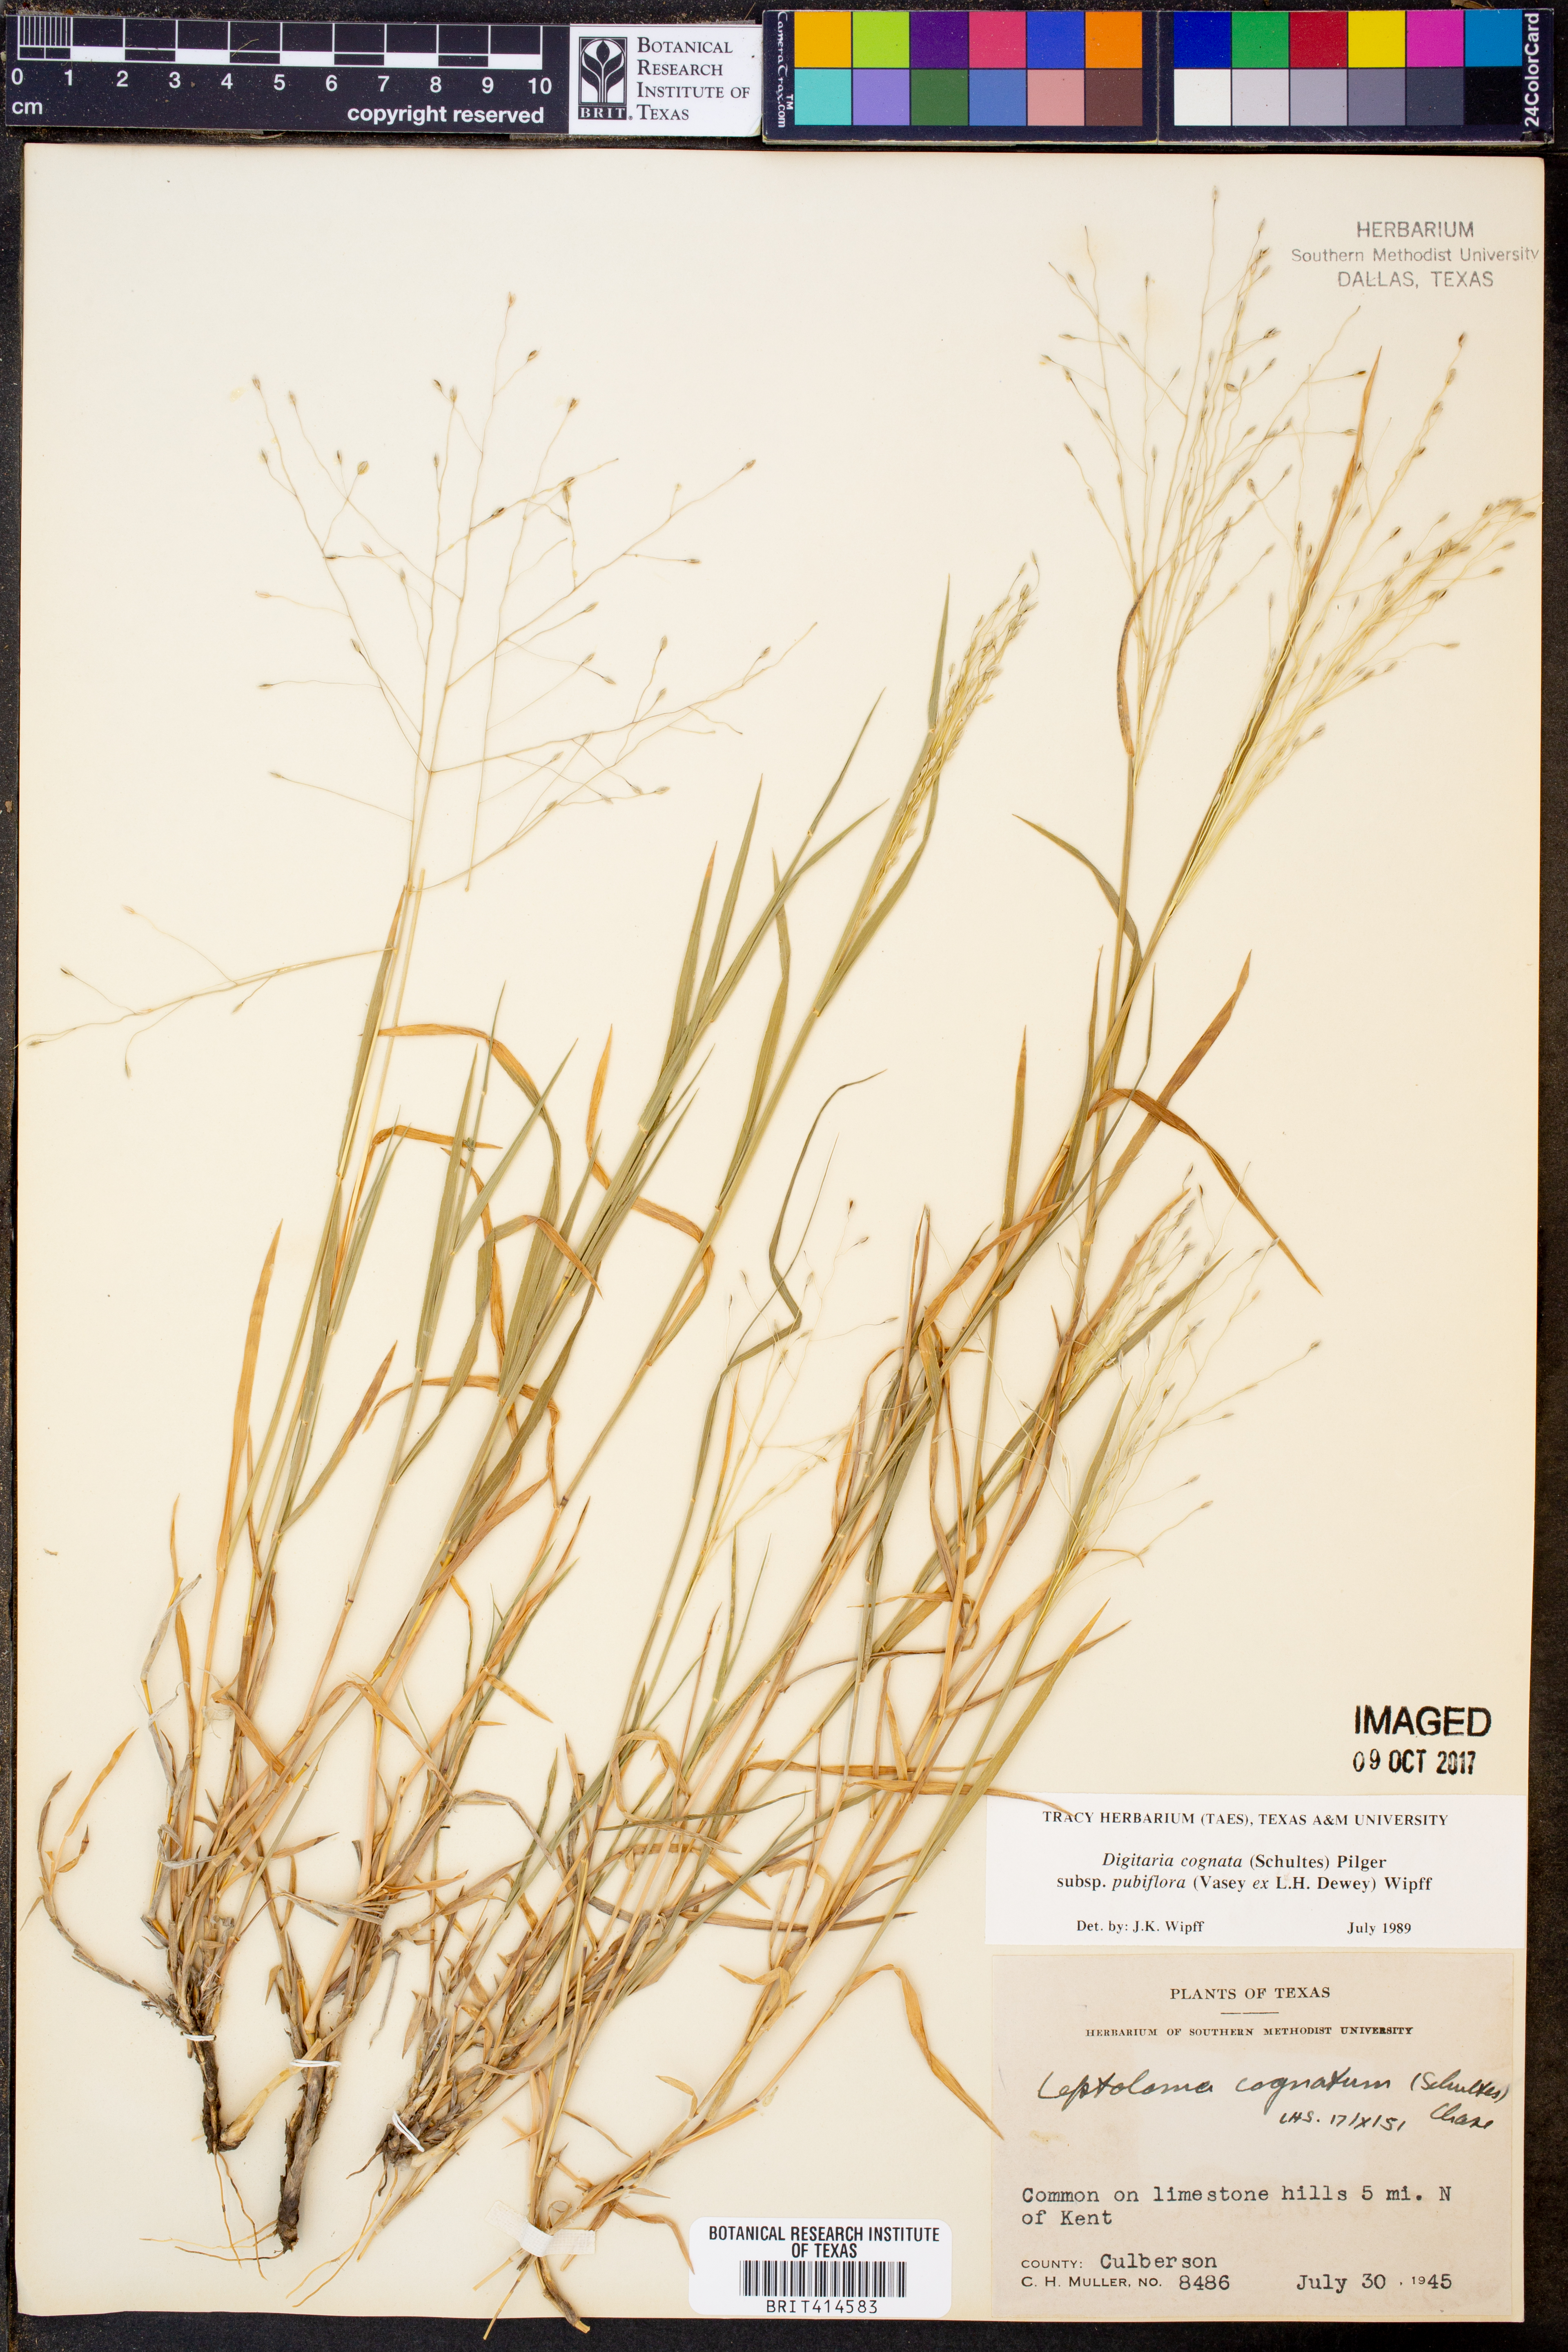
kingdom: Plantae
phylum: Tracheophyta
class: Liliopsida
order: Poales
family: Poaceae
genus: Digitaria
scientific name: Digitaria cognata
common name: Fall witchgrass
